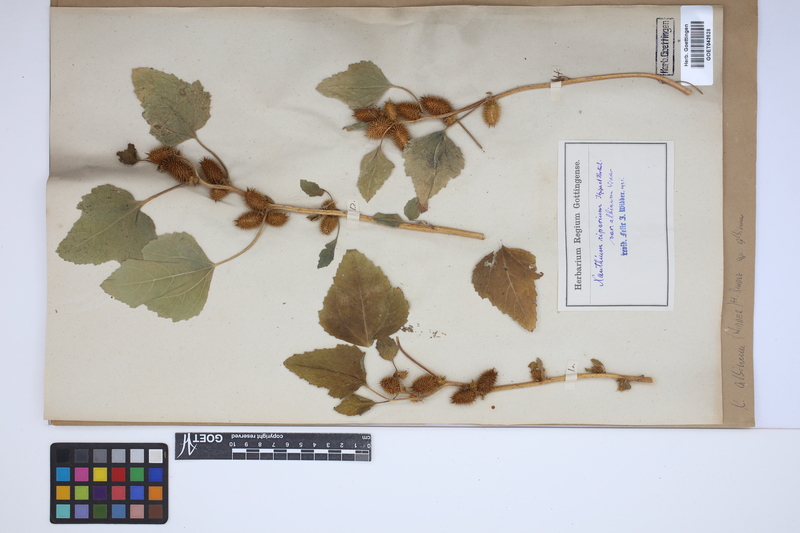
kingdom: Plantae
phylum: Tracheophyta
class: Magnoliopsida
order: Asterales
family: Asteraceae
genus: Xanthium
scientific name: Xanthium orientale
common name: Californian burr
